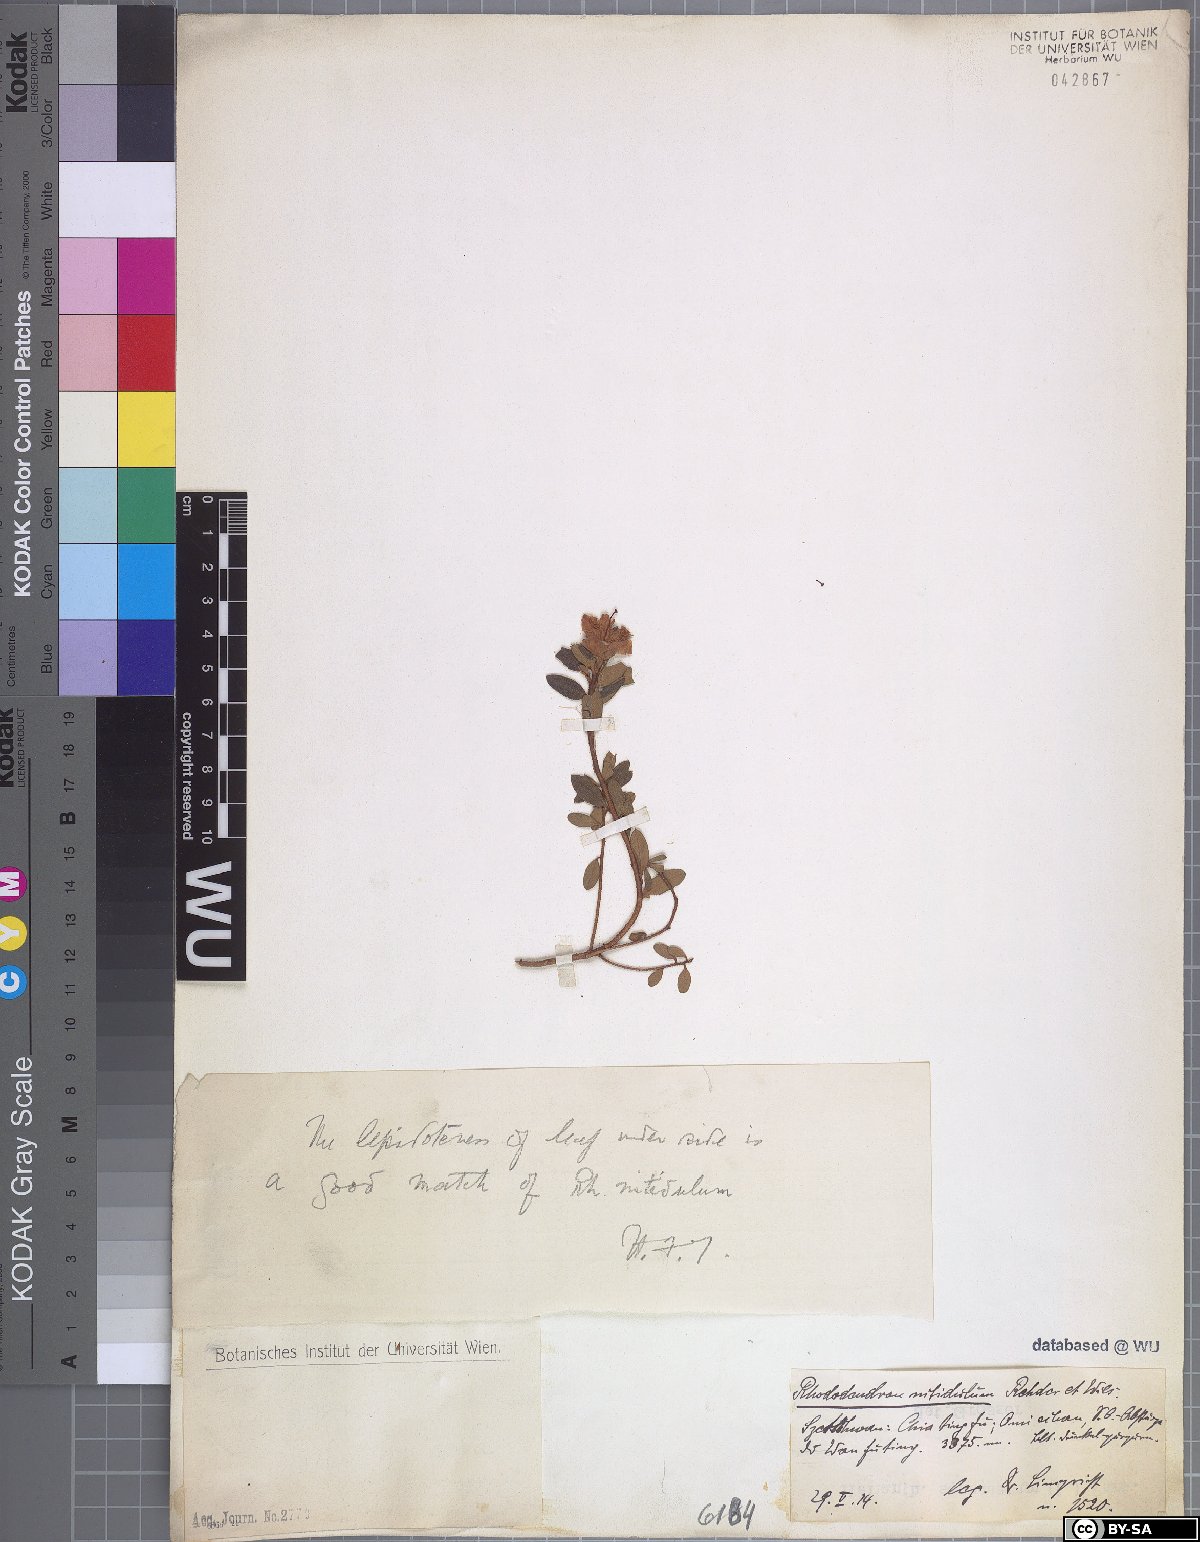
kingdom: Plantae
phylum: Tracheophyta
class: Magnoliopsida
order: Ericales
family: Ericaceae
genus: Rhododendron
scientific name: Rhododendron nitidulum
